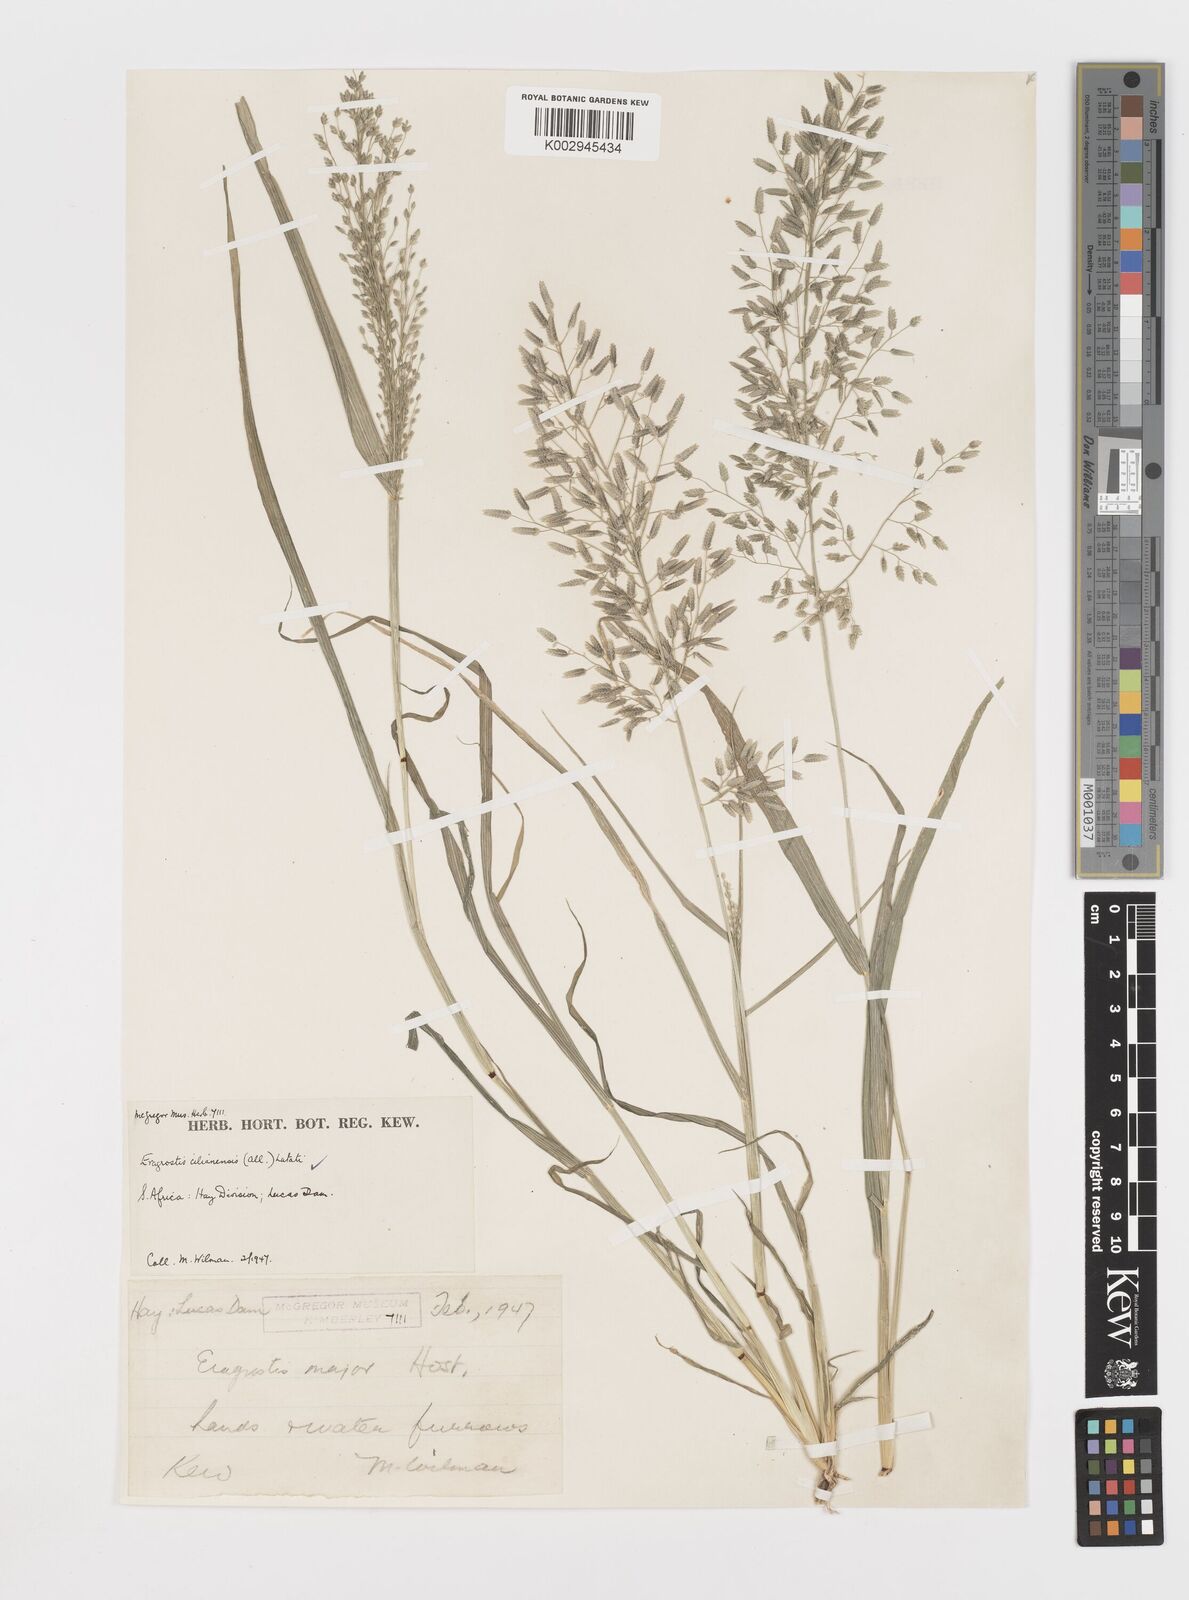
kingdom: Plantae
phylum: Tracheophyta
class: Liliopsida
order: Poales
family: Poaceae
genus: Eragrostis
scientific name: Eragrostis cilianensis
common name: Stinkgrass
